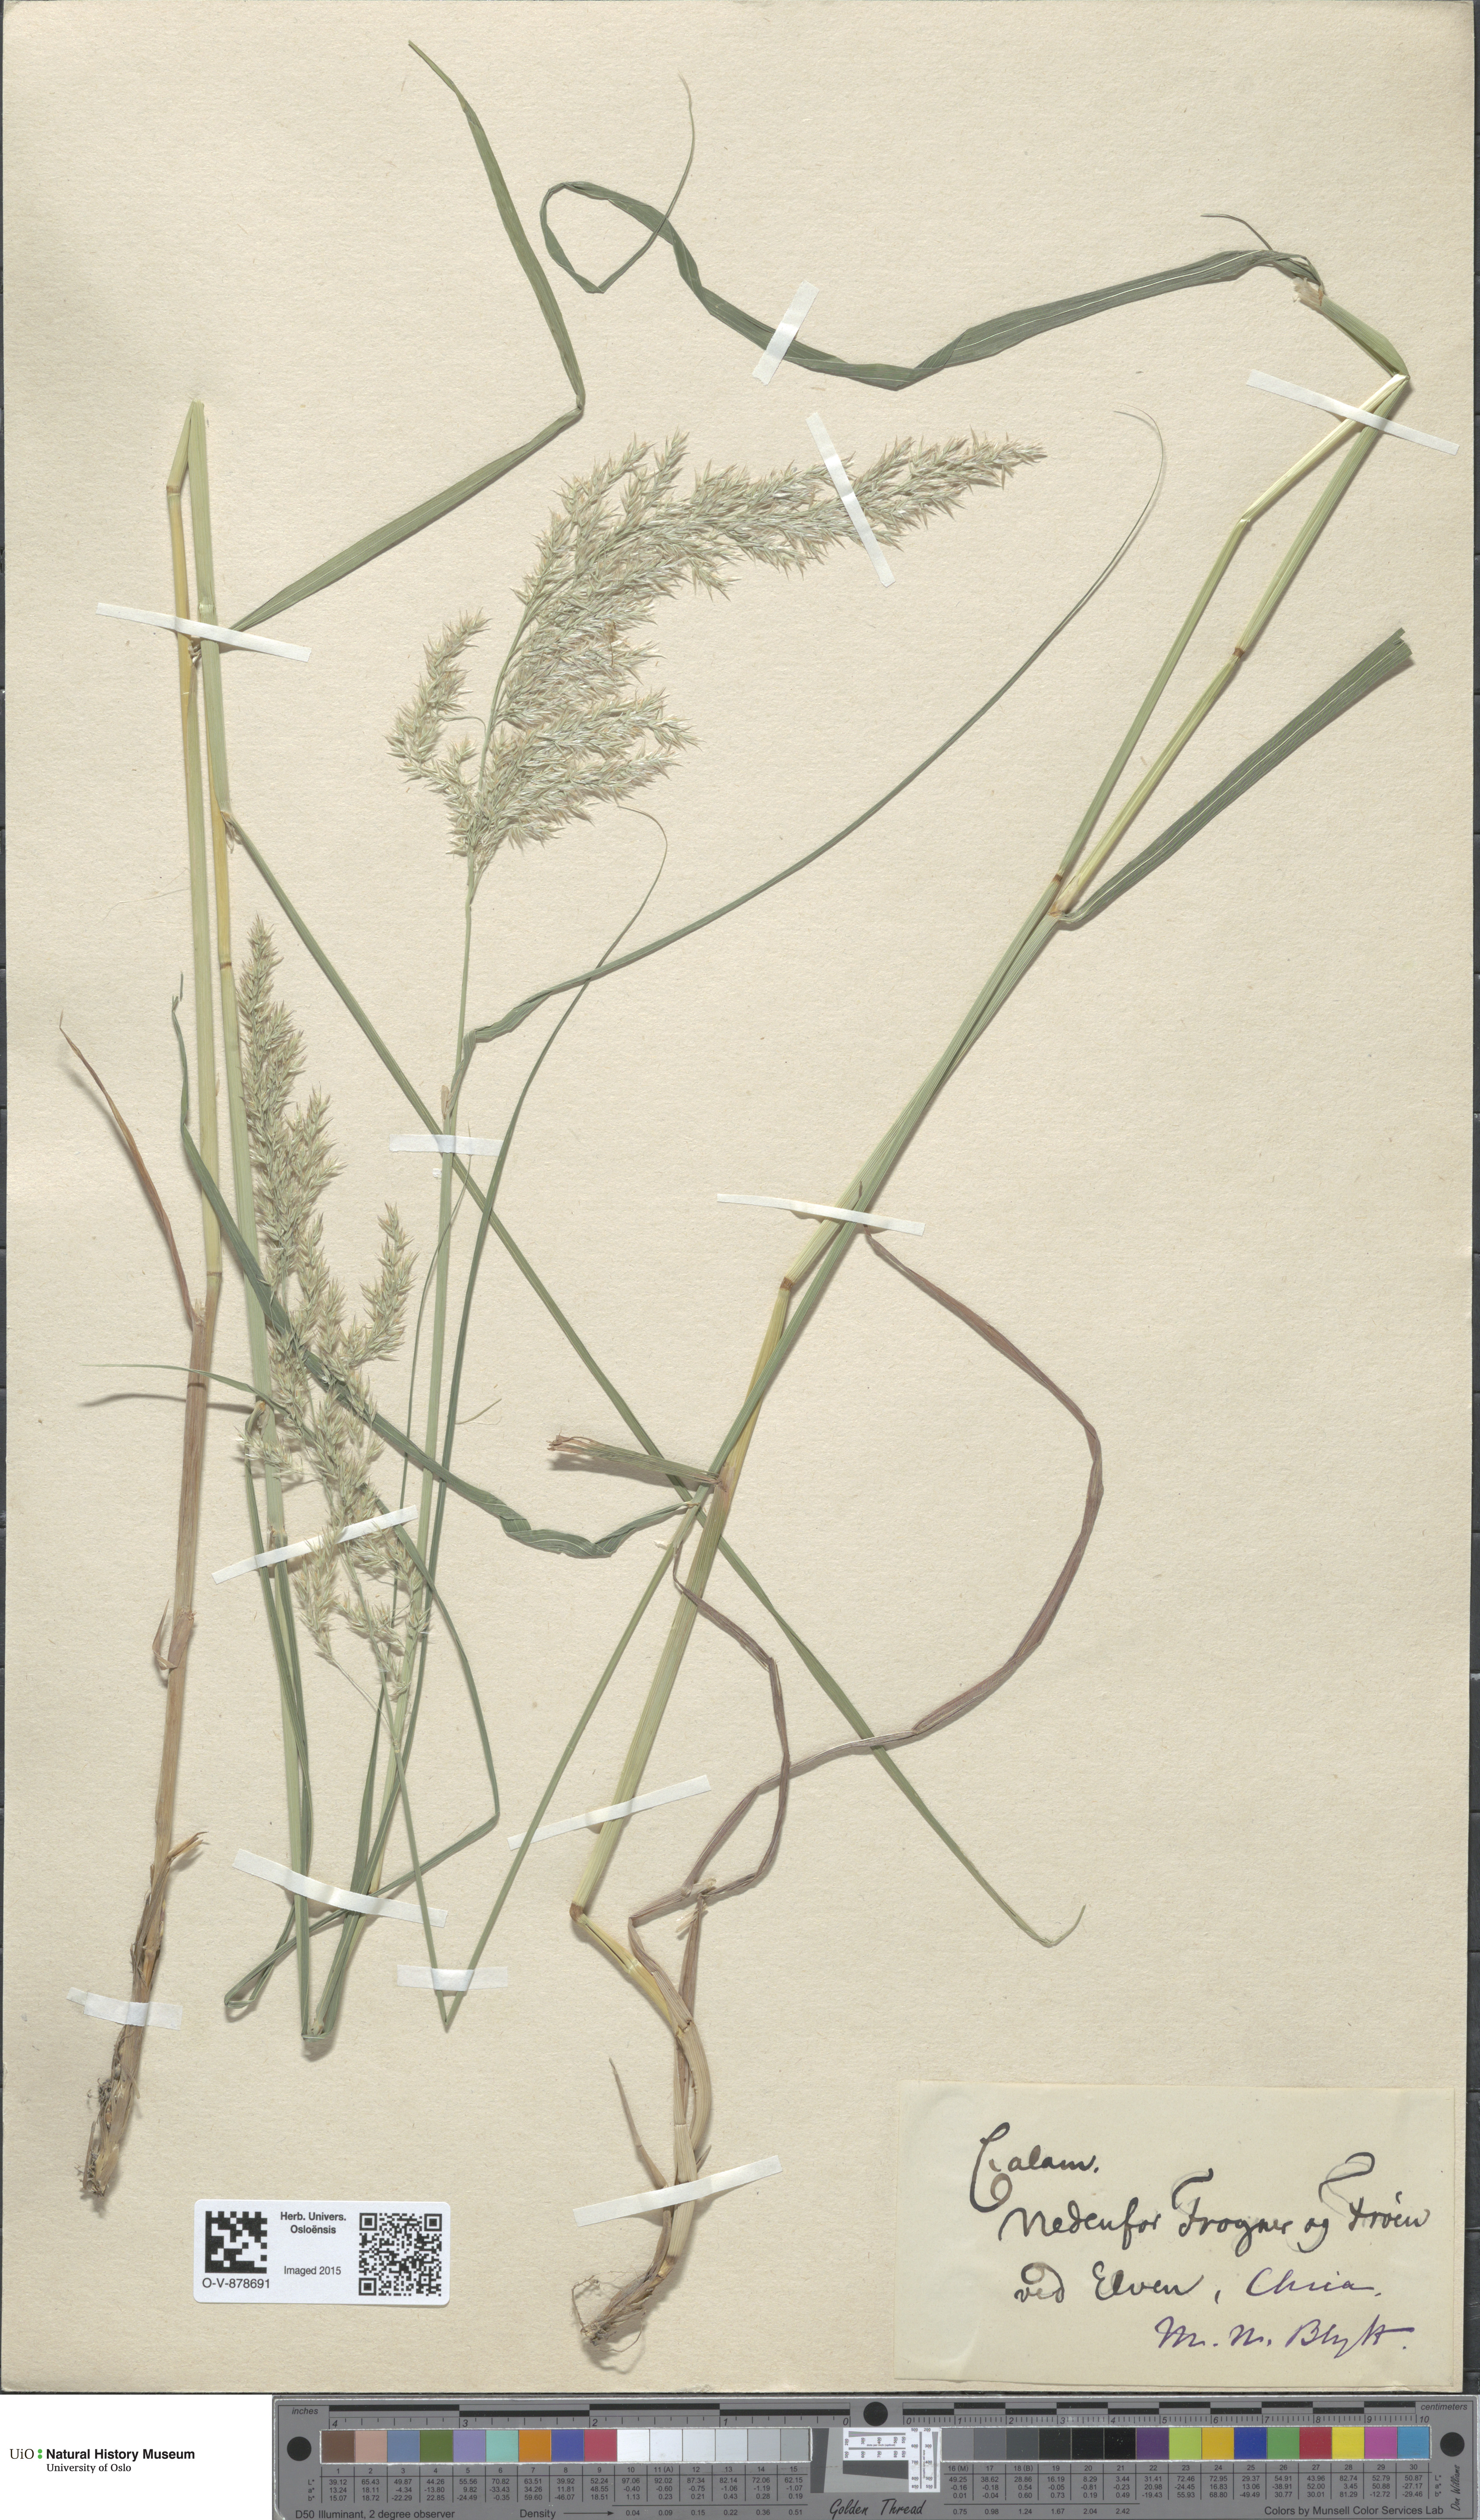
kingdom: Plantae
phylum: Tracheophyta
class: Liliopsida
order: Poales
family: Poaceae
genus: Calamagrostis
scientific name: Calamagrostis purpurea
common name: Scandinavian small-reed
